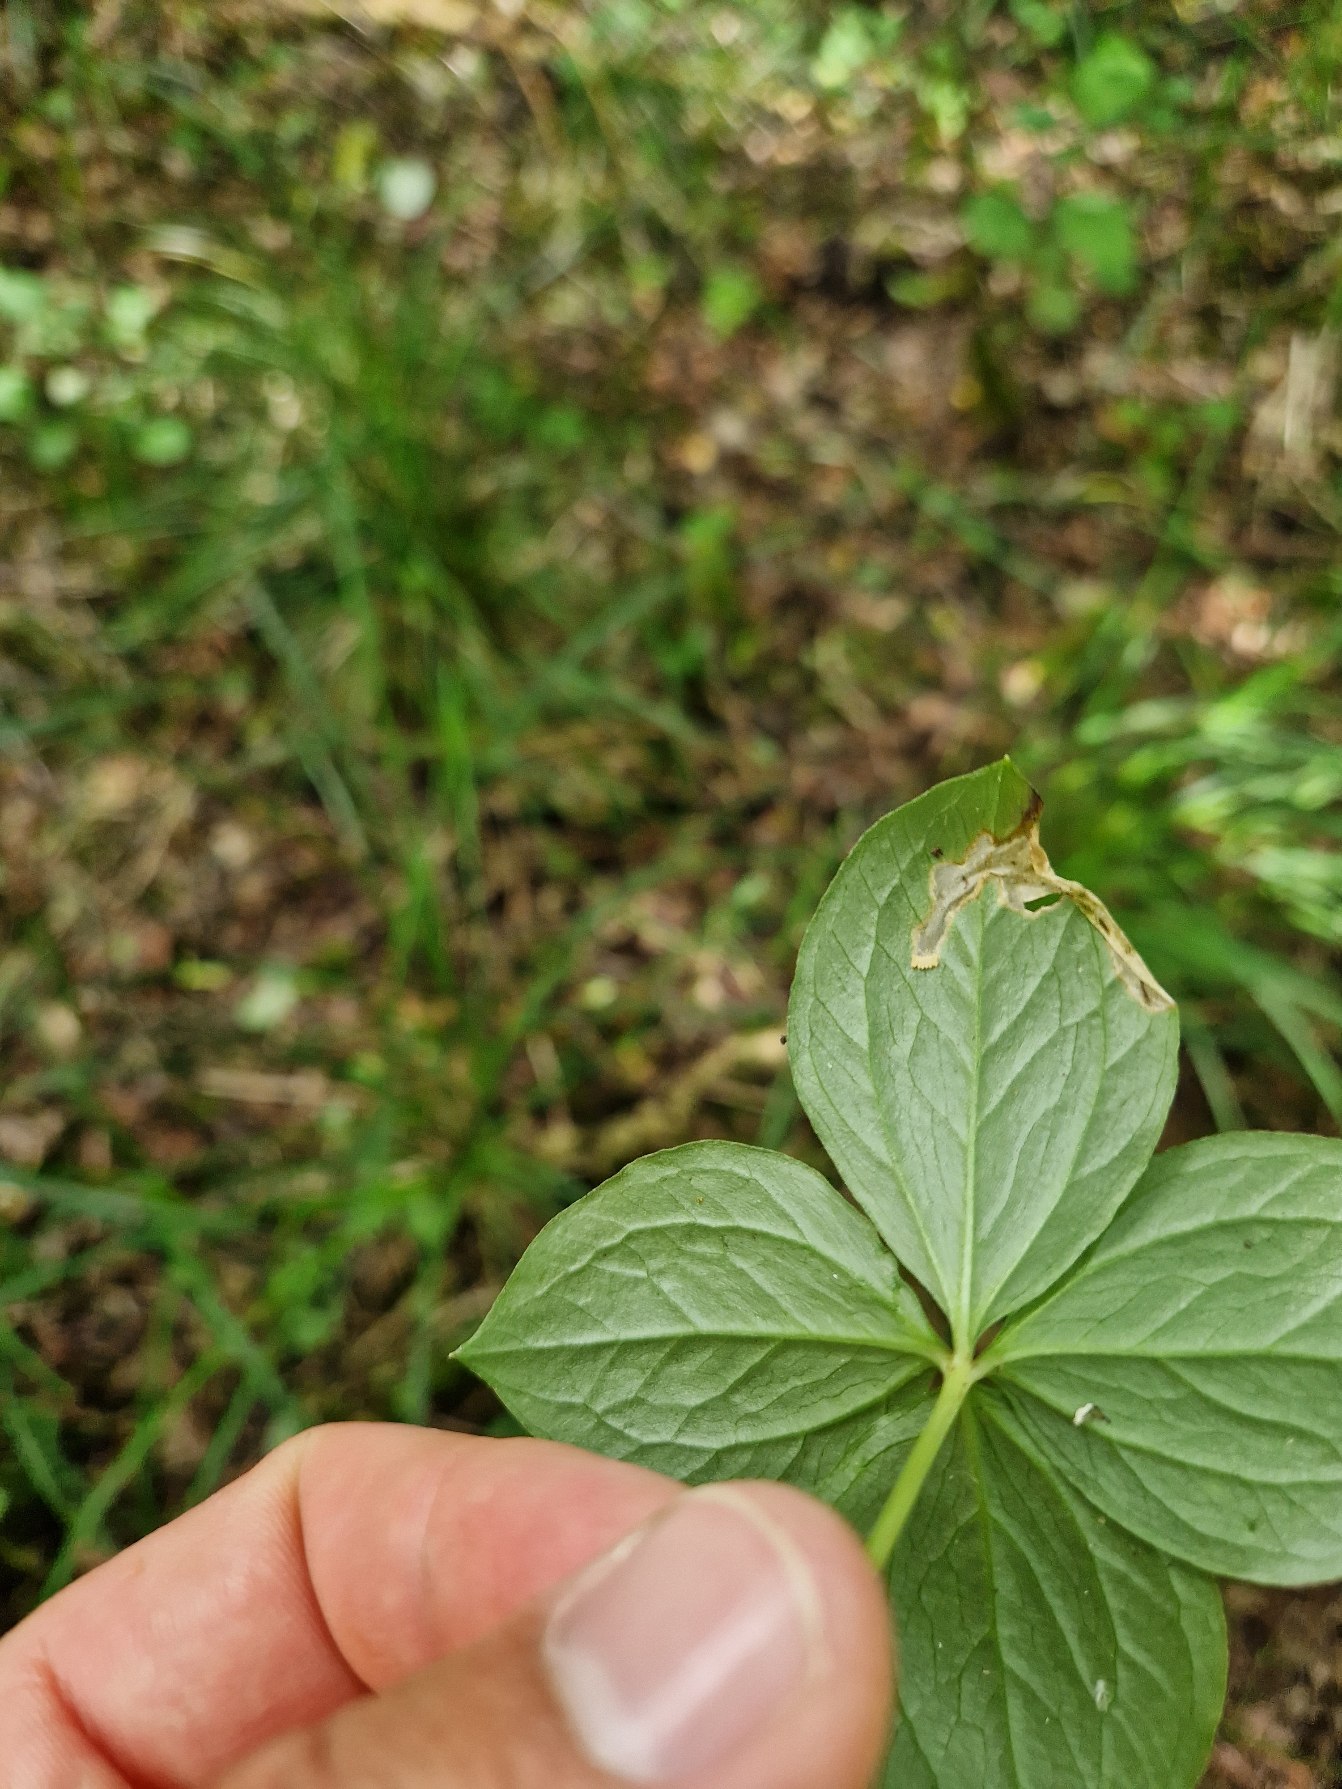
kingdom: Plantae
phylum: Tracheophyta
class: Liliopsida
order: Liliales
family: Melanthiaceae
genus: Paris
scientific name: Paris quadrifolia
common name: Firblad
